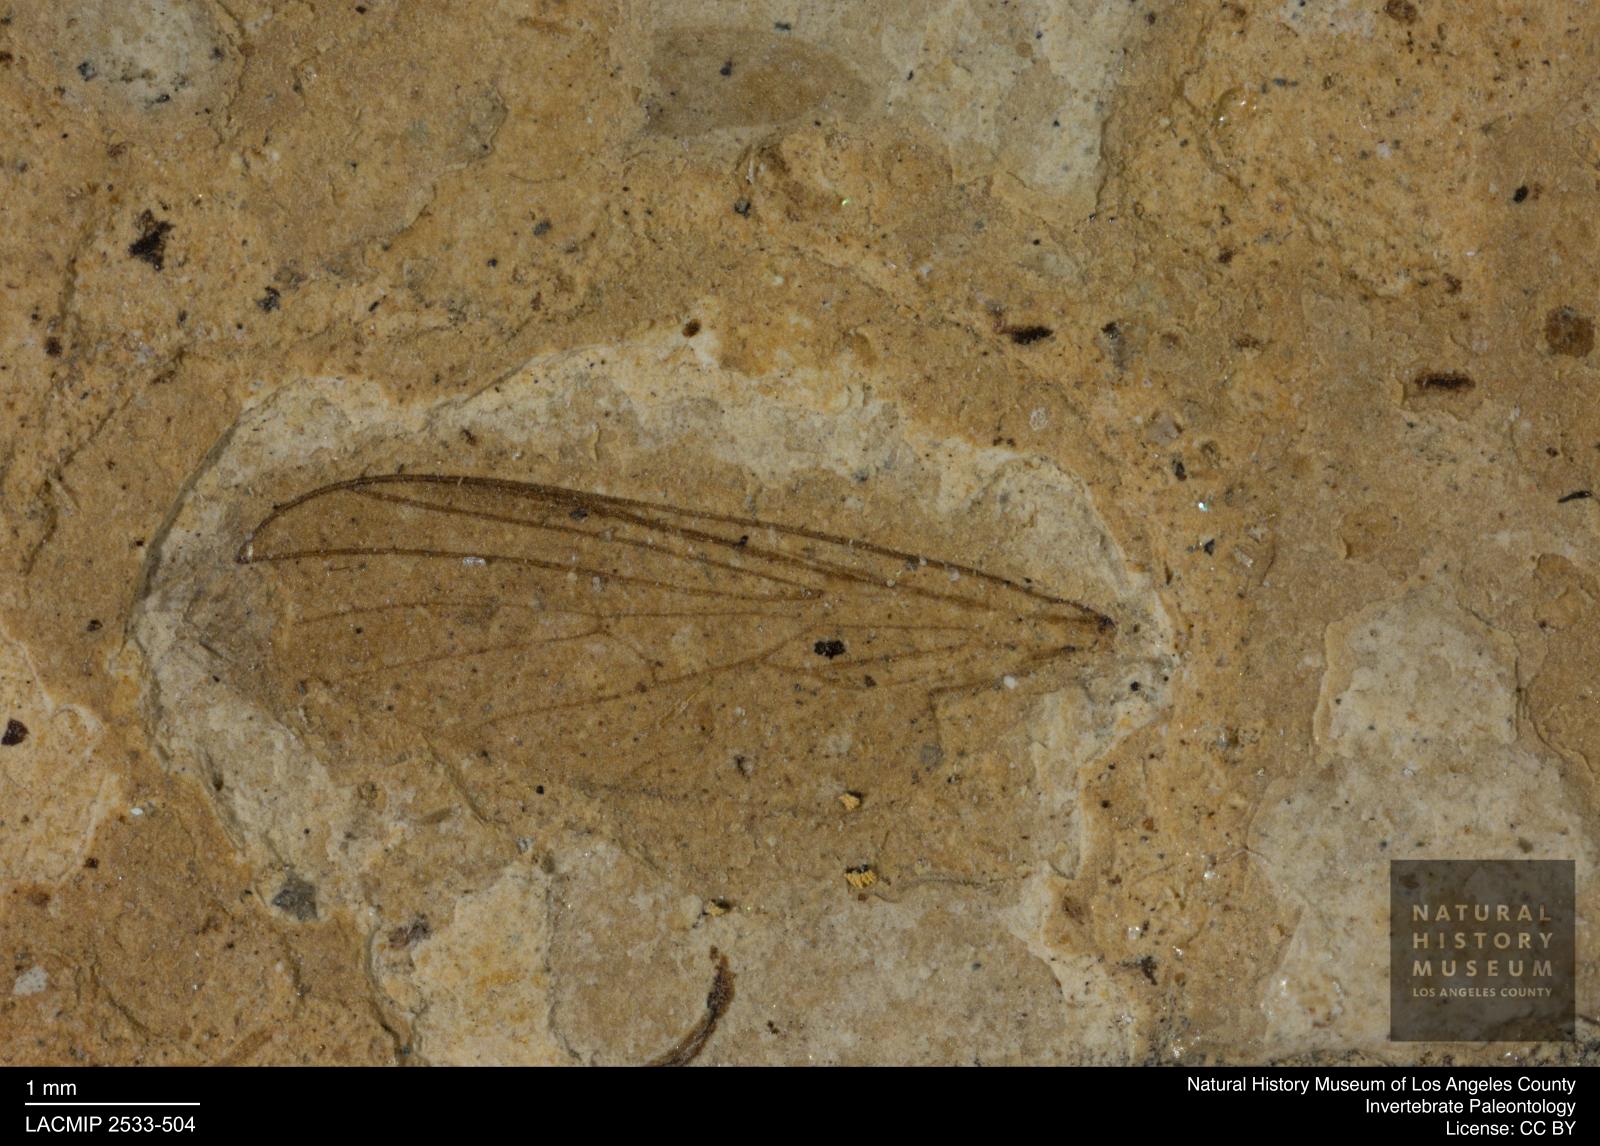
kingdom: Animalia
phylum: Arthropoda
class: Insecta
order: Diptera
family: Empididae
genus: Rhamphomyia
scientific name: Rhamphomyia rottensis
